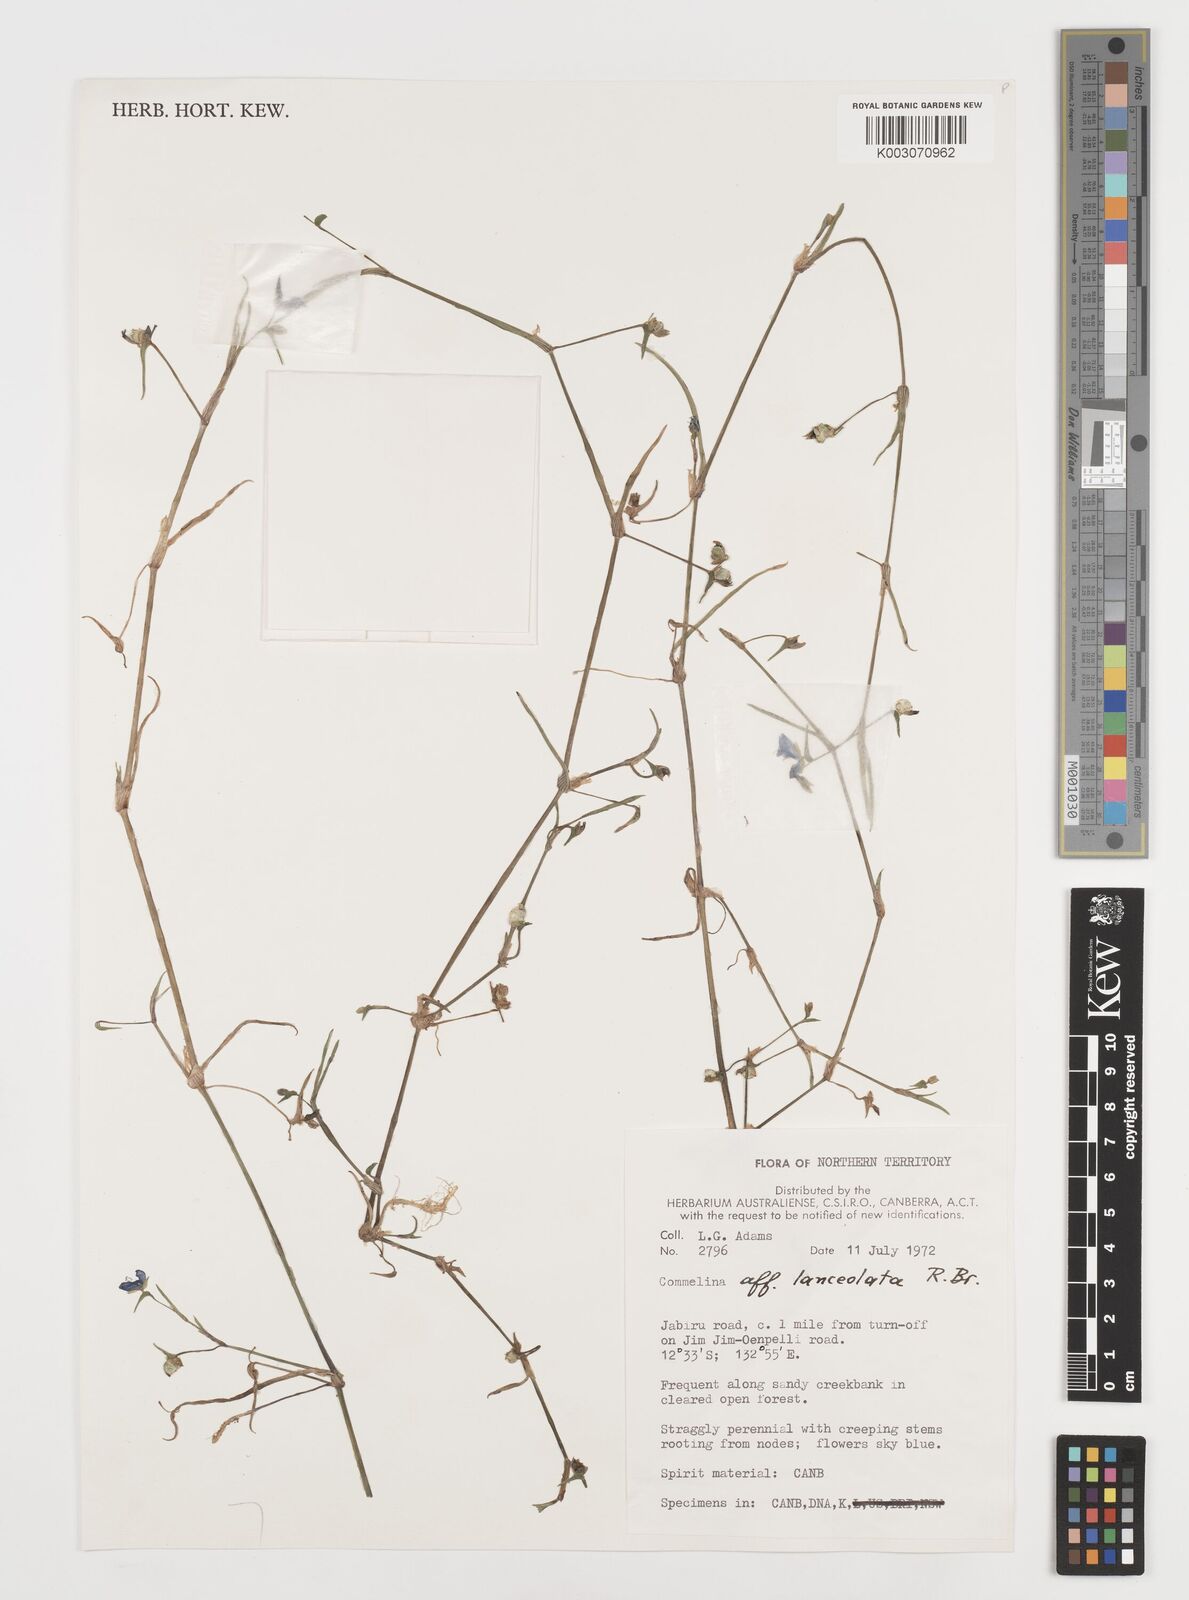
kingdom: Plantae
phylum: Tracheophyta
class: Liliopsida
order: Commelinales
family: Commelinaceae
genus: Commelina
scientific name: Commelina lanceolata
